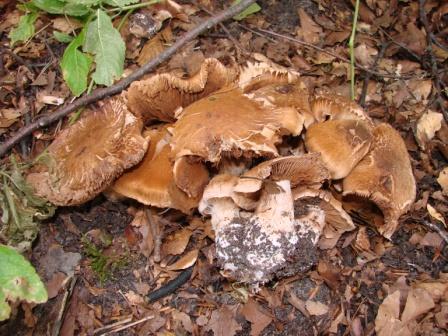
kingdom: Fungi
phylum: Basidiomycota
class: Agaricomycetes
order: Agaricales
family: Cortinariaceae
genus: Cortinarius
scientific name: Cortinarius sordescens
